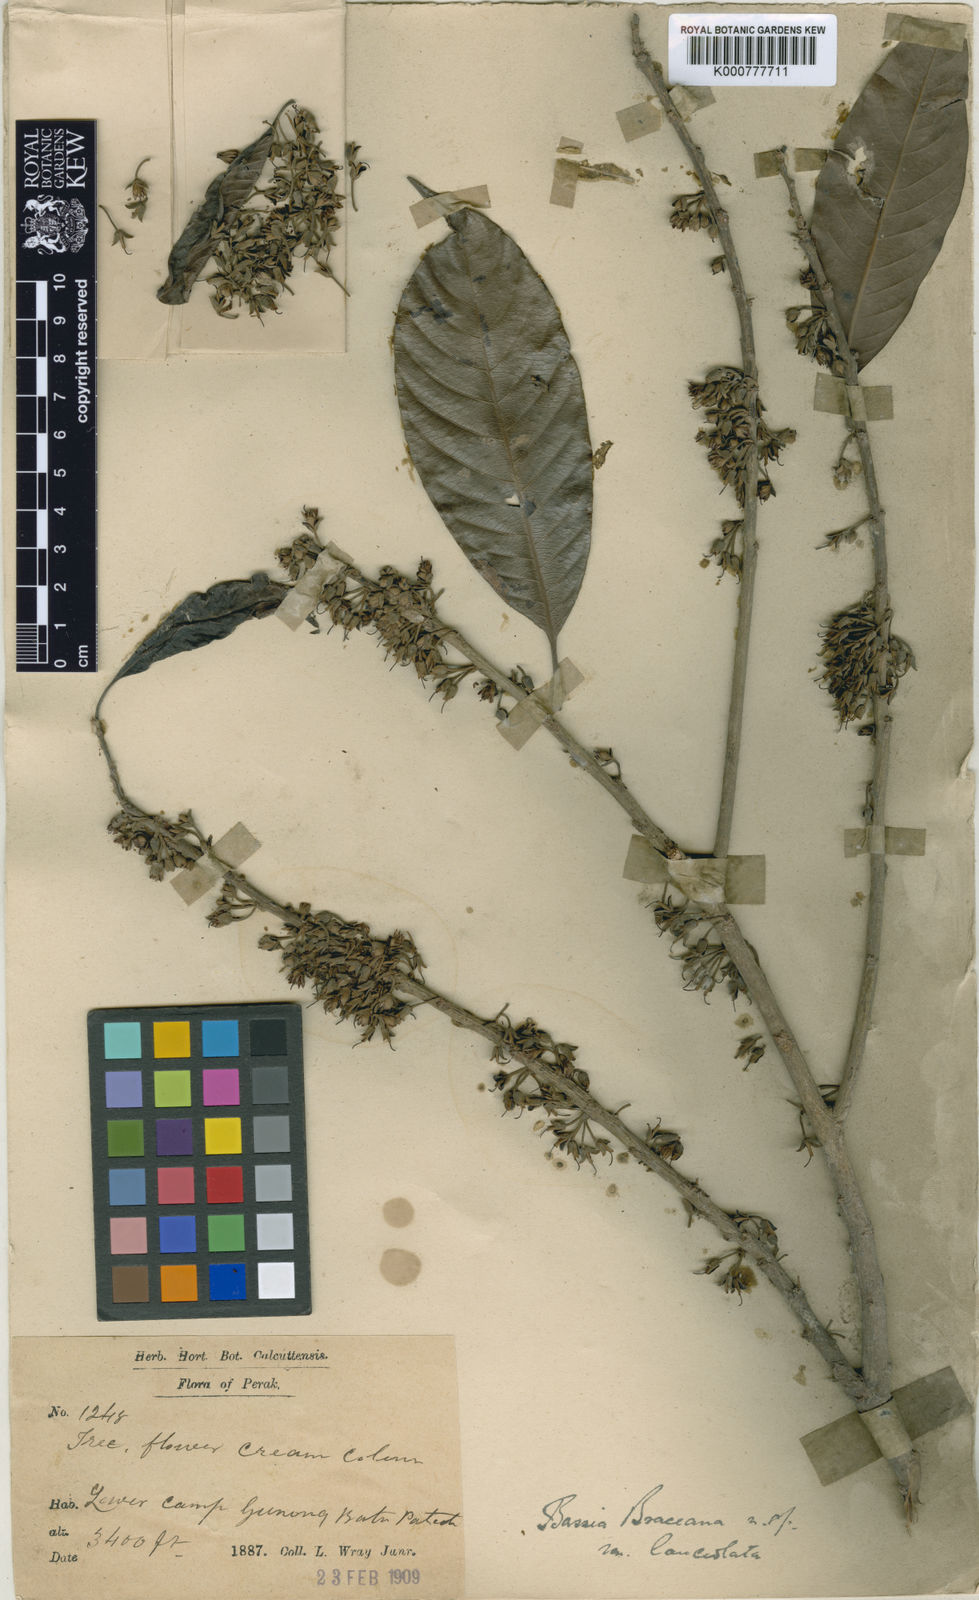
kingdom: Plantae
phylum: Tracheophyta
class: Magnoliopsida
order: Ericales
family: Sapotaceae
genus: Madhuca
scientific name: Madhuca korthalsii
